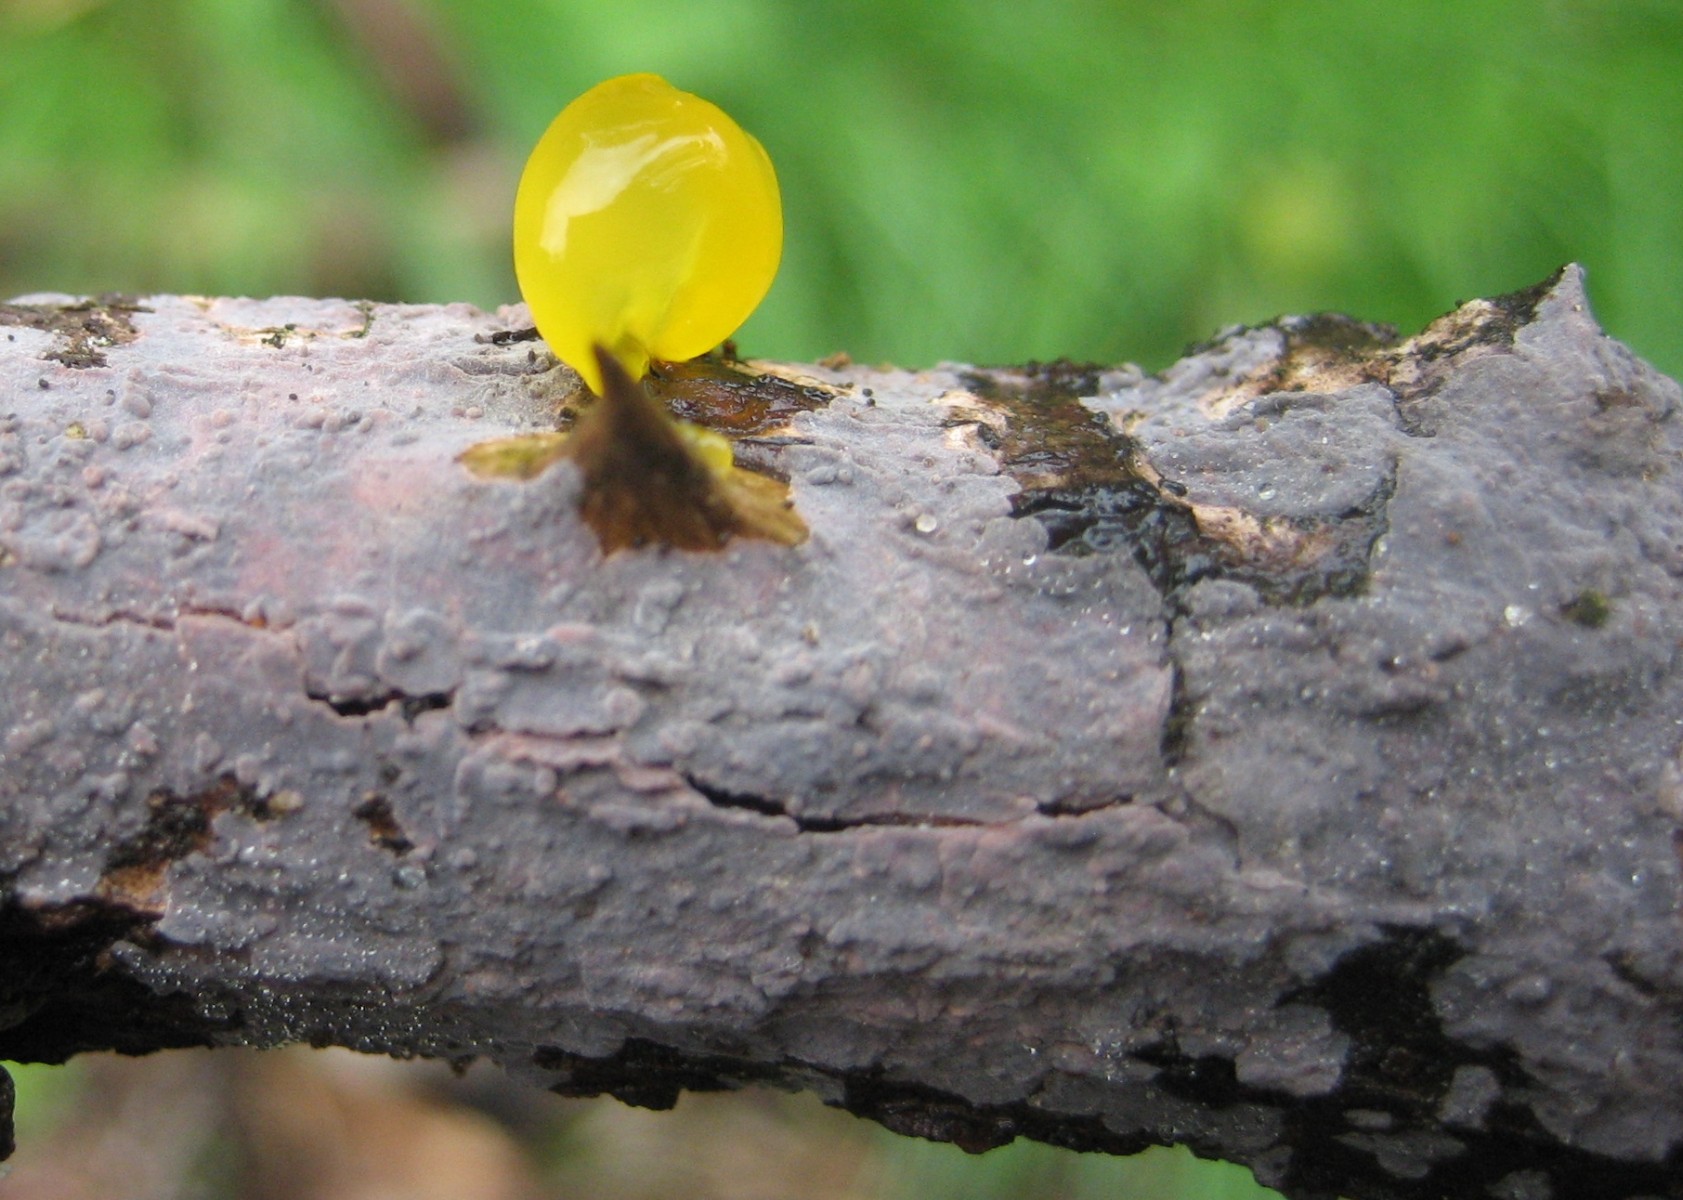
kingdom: Fungi
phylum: Basidiomycota
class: Tremellomycetes
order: Tremellales
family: Tremellaceae
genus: Tremella
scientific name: Tremella mesenterica
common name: gul bævresvamp
